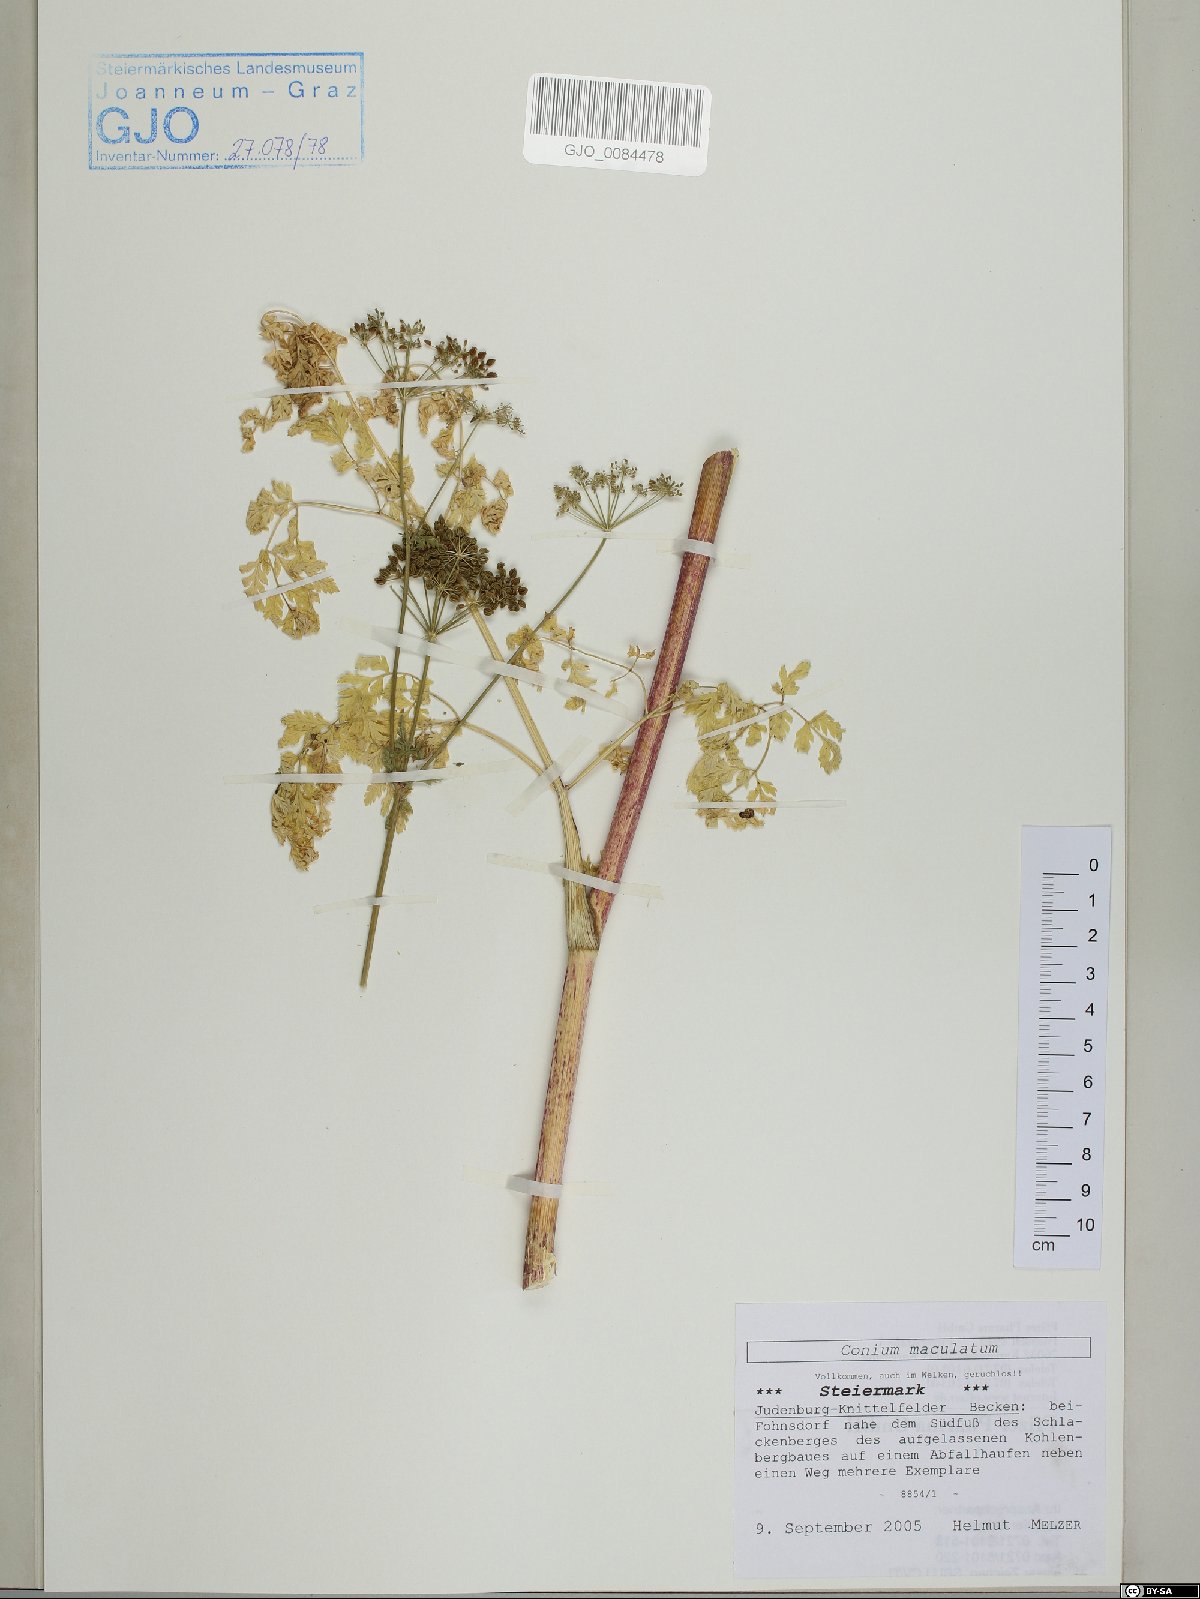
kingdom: Plantae
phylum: Tracheophyta
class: Magnoliopsida
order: Apiales
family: Apiaceae
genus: Conium
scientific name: Conium maculatum
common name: Hemlock
